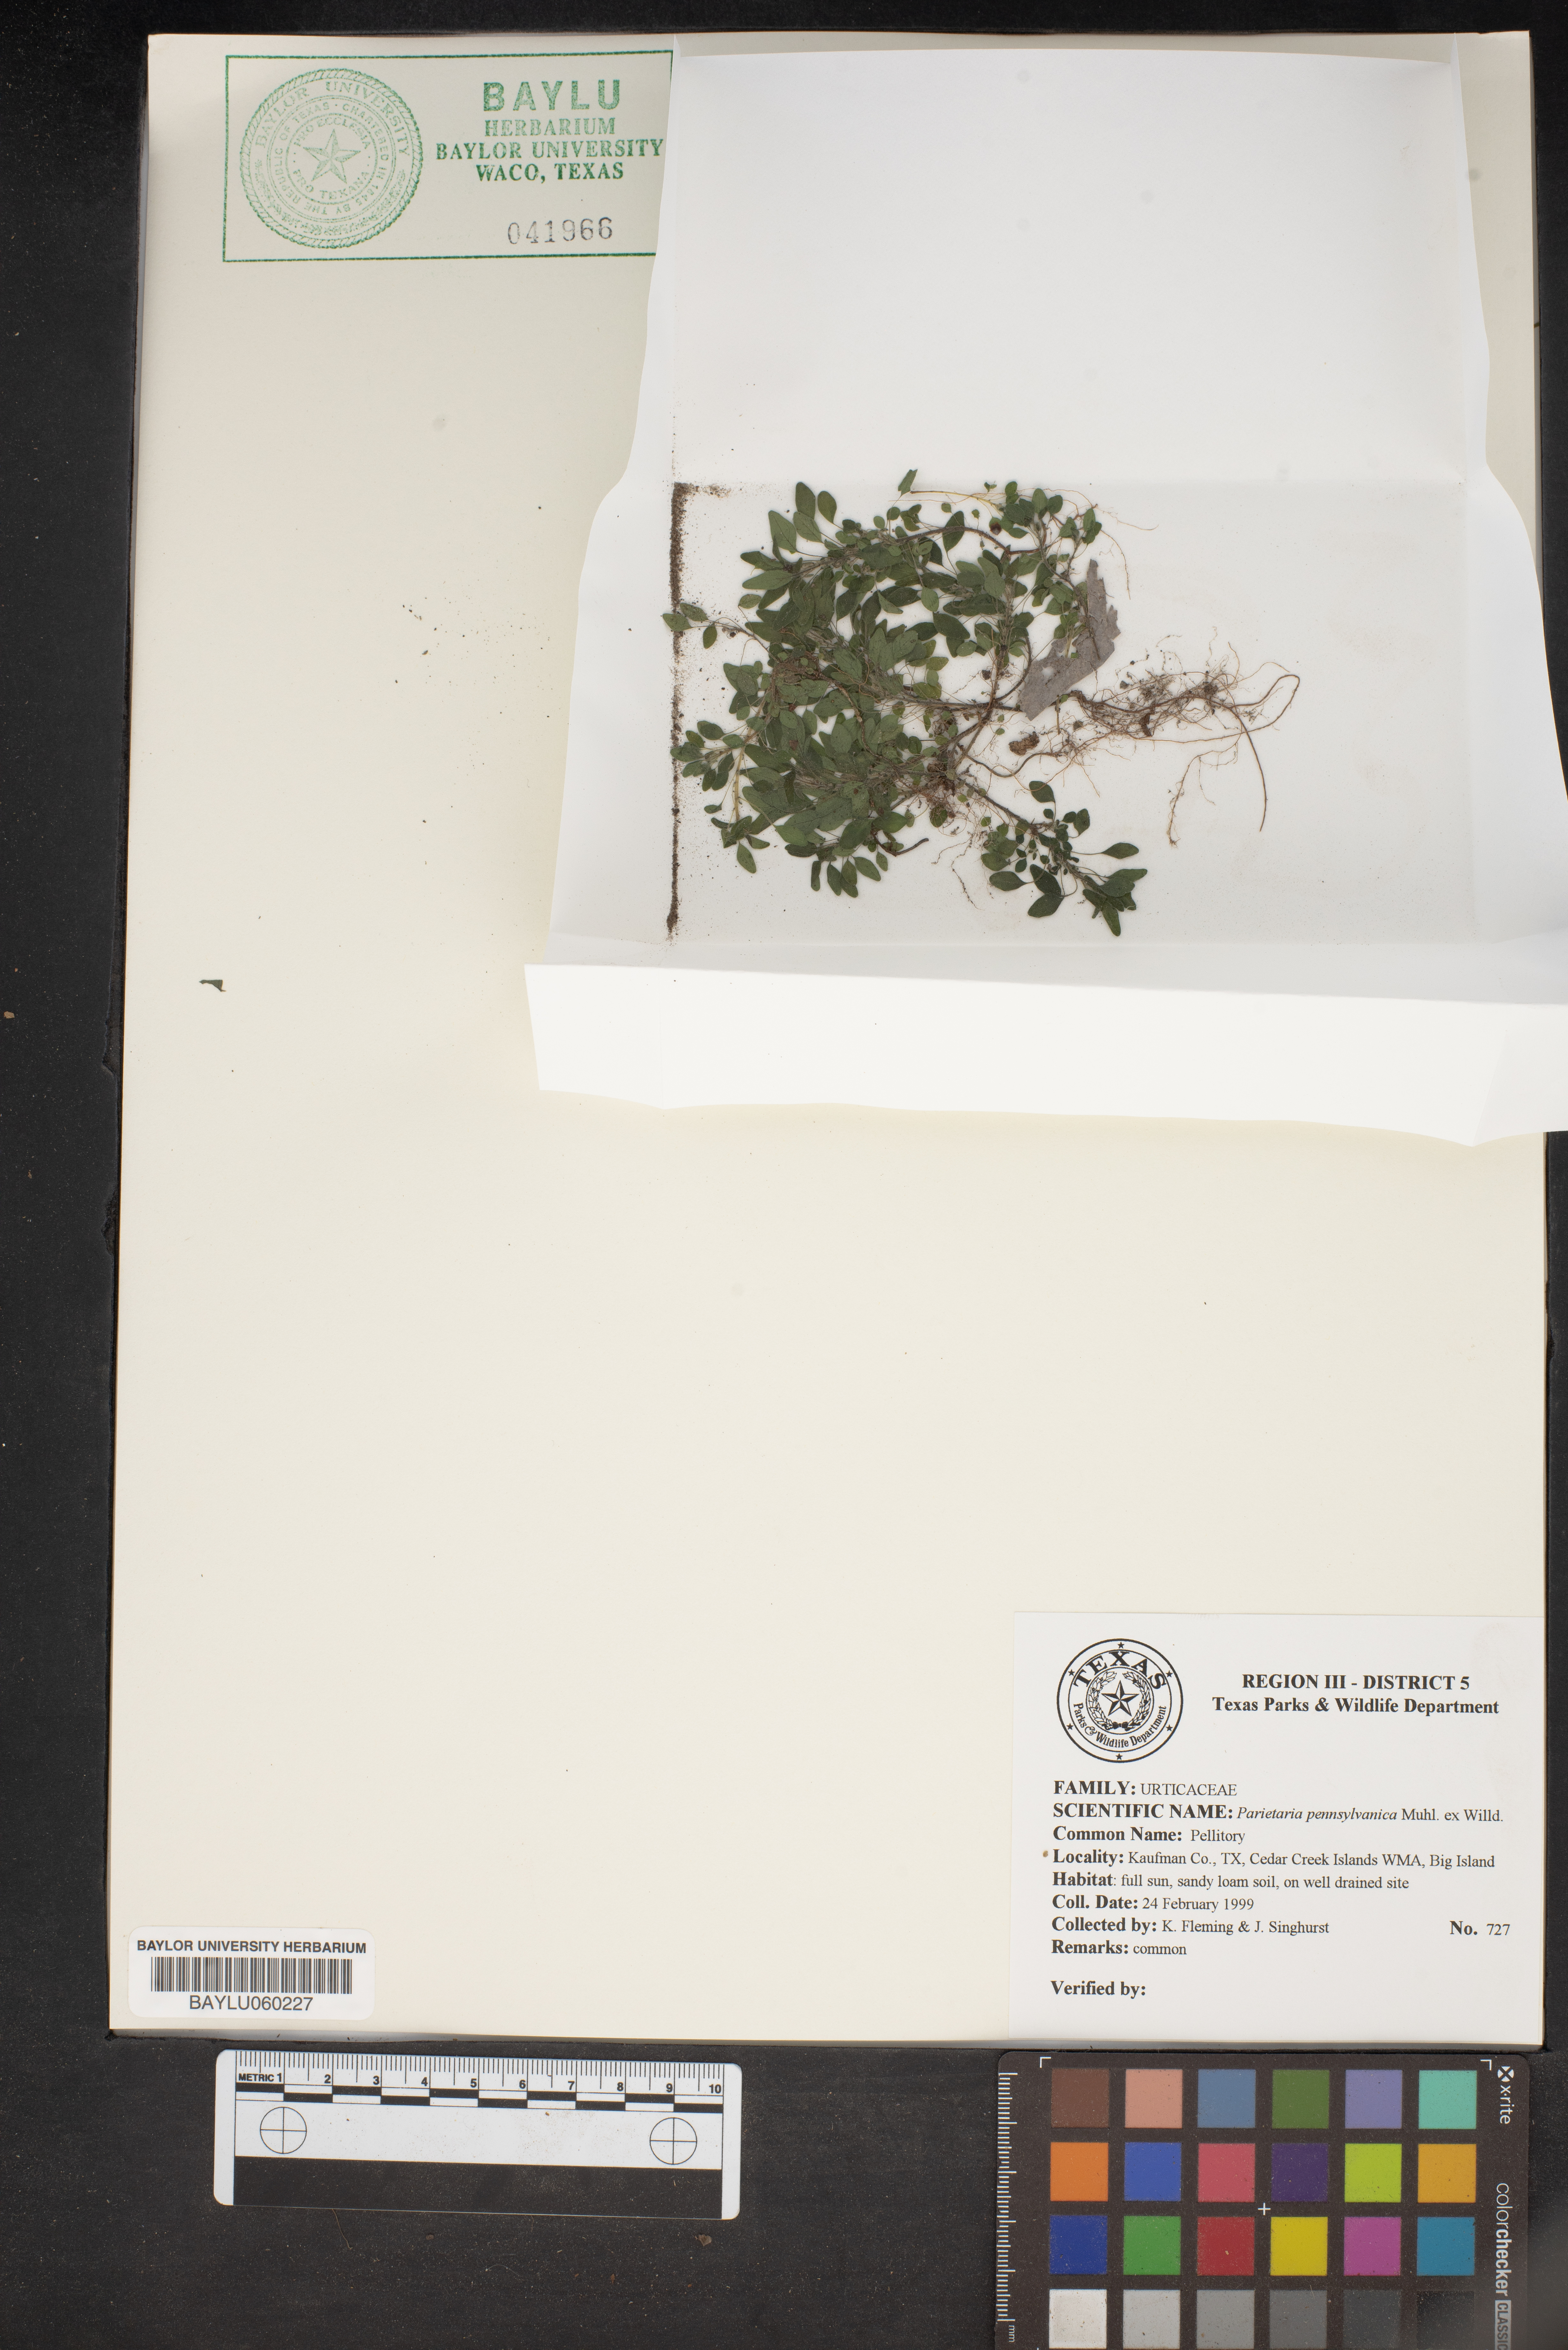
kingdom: Plantae
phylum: Tracheophyta
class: Magnoliopsida
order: Rosales
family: Urticaceae
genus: Parietaria
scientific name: Parietaria pensylvanica
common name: Pennsylvania pellitory
